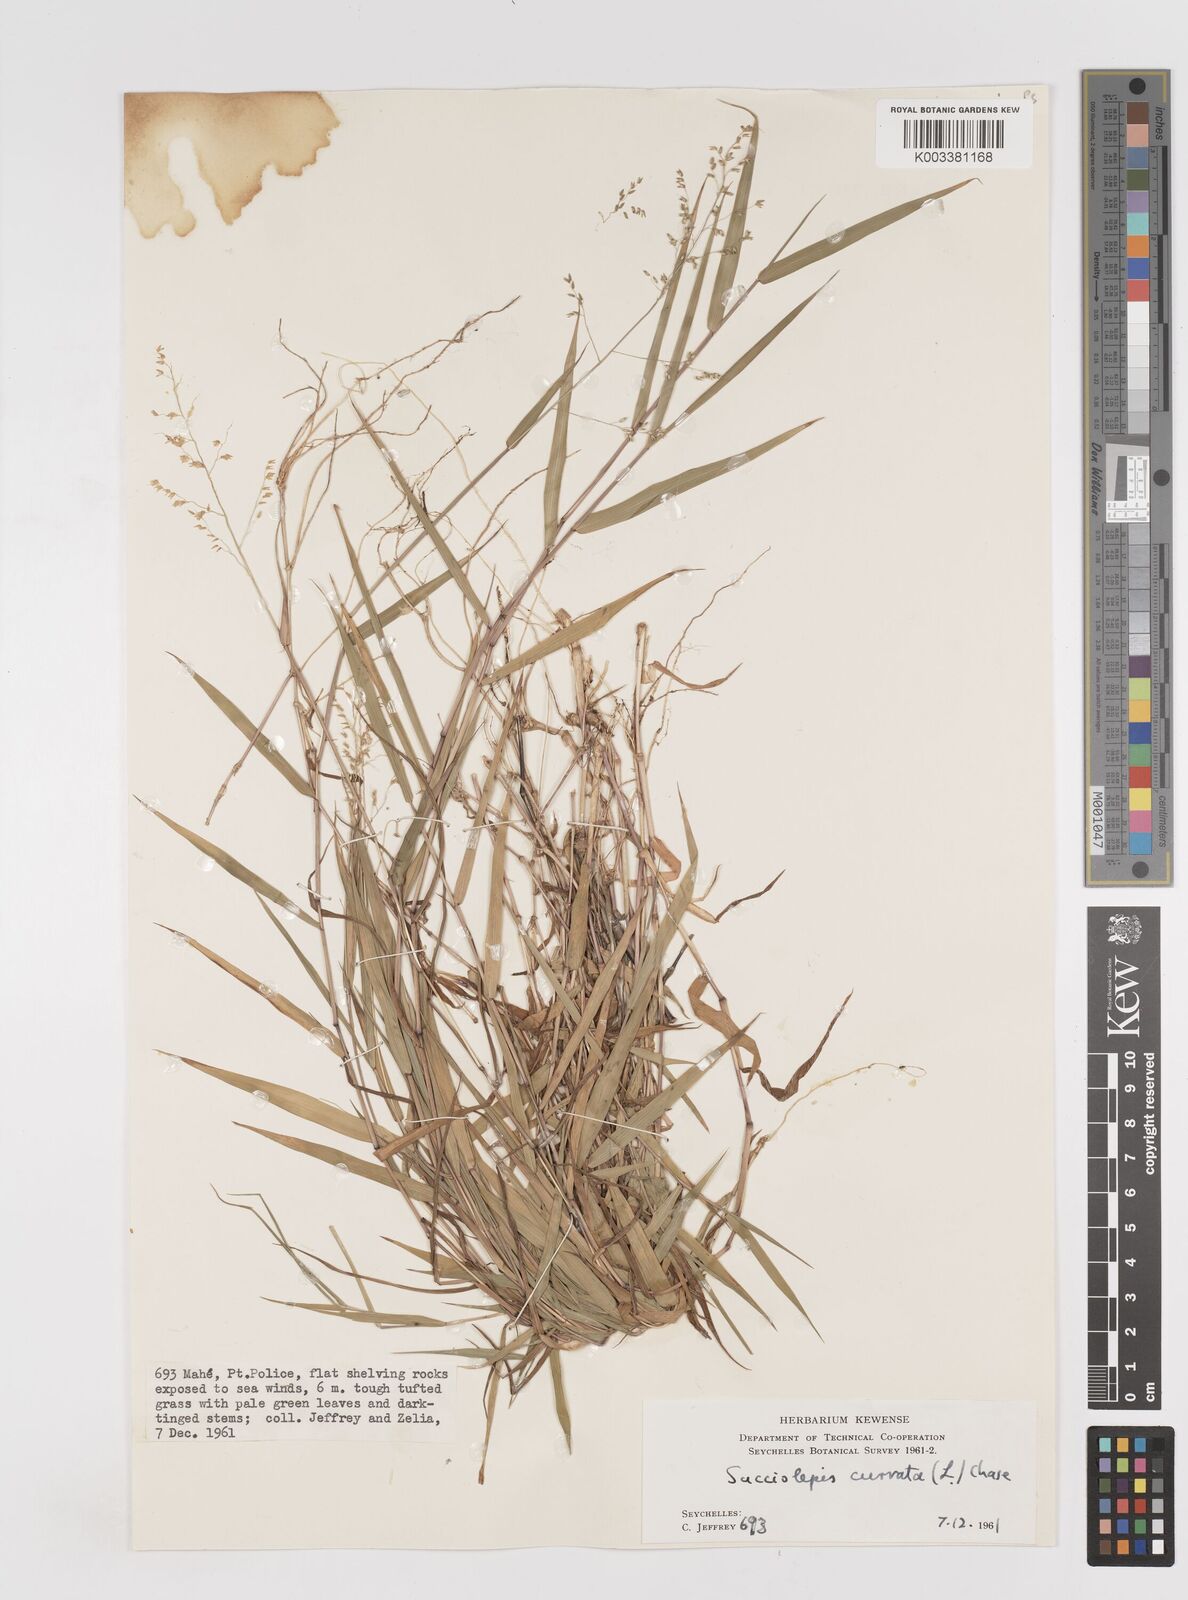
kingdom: Plantae
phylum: Tracheophyta
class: Liliopsida
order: Poales
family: Poaceae
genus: Sacciolepis
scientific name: Sacciolepis curvata
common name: Forest hood grass
